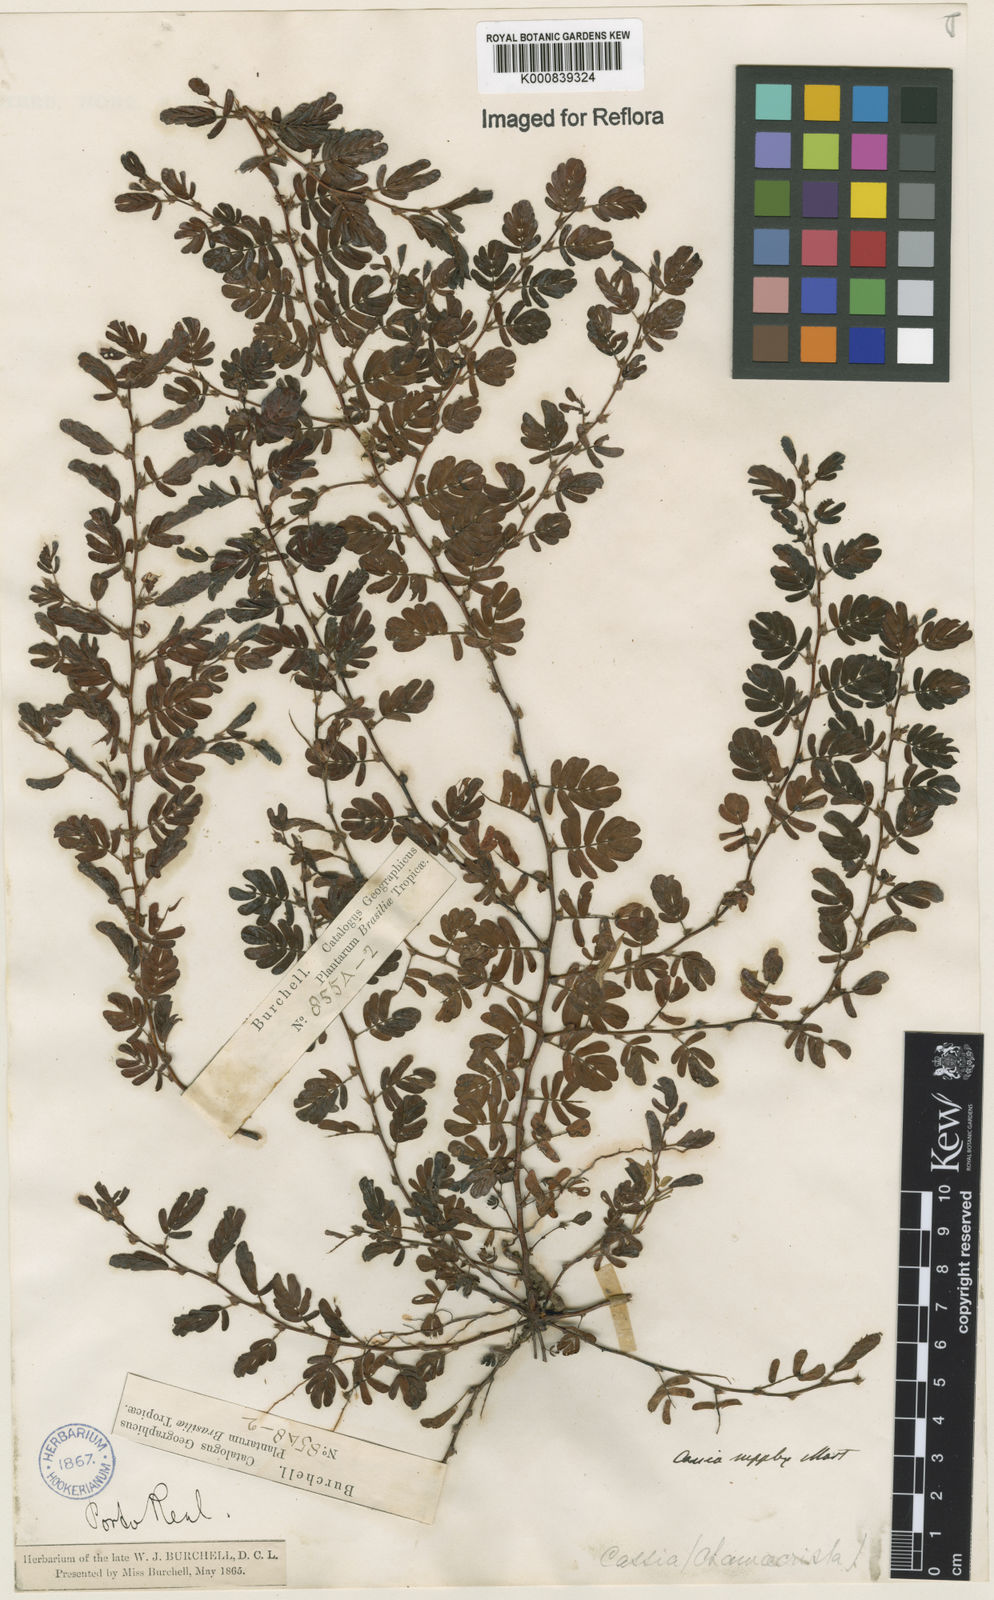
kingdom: Plantae
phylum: Tracheophyta
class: Magnoliopsida
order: Fabales
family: Fabaceae
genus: Chamaecrista
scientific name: Chamaecrista supplex
